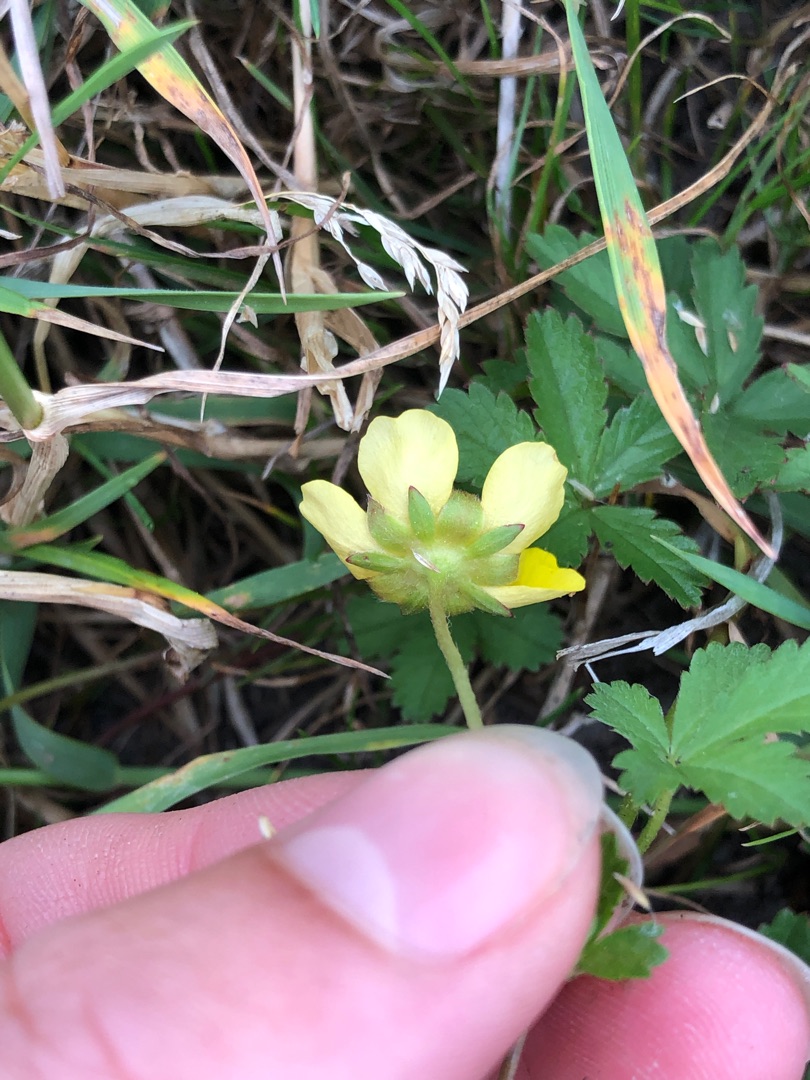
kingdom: Plantae
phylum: Tracheophyta
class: Magnoliopsida
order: Rosales
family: Rosaceae
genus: Potentilla
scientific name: Potentilla reptans
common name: Krybende potentil
